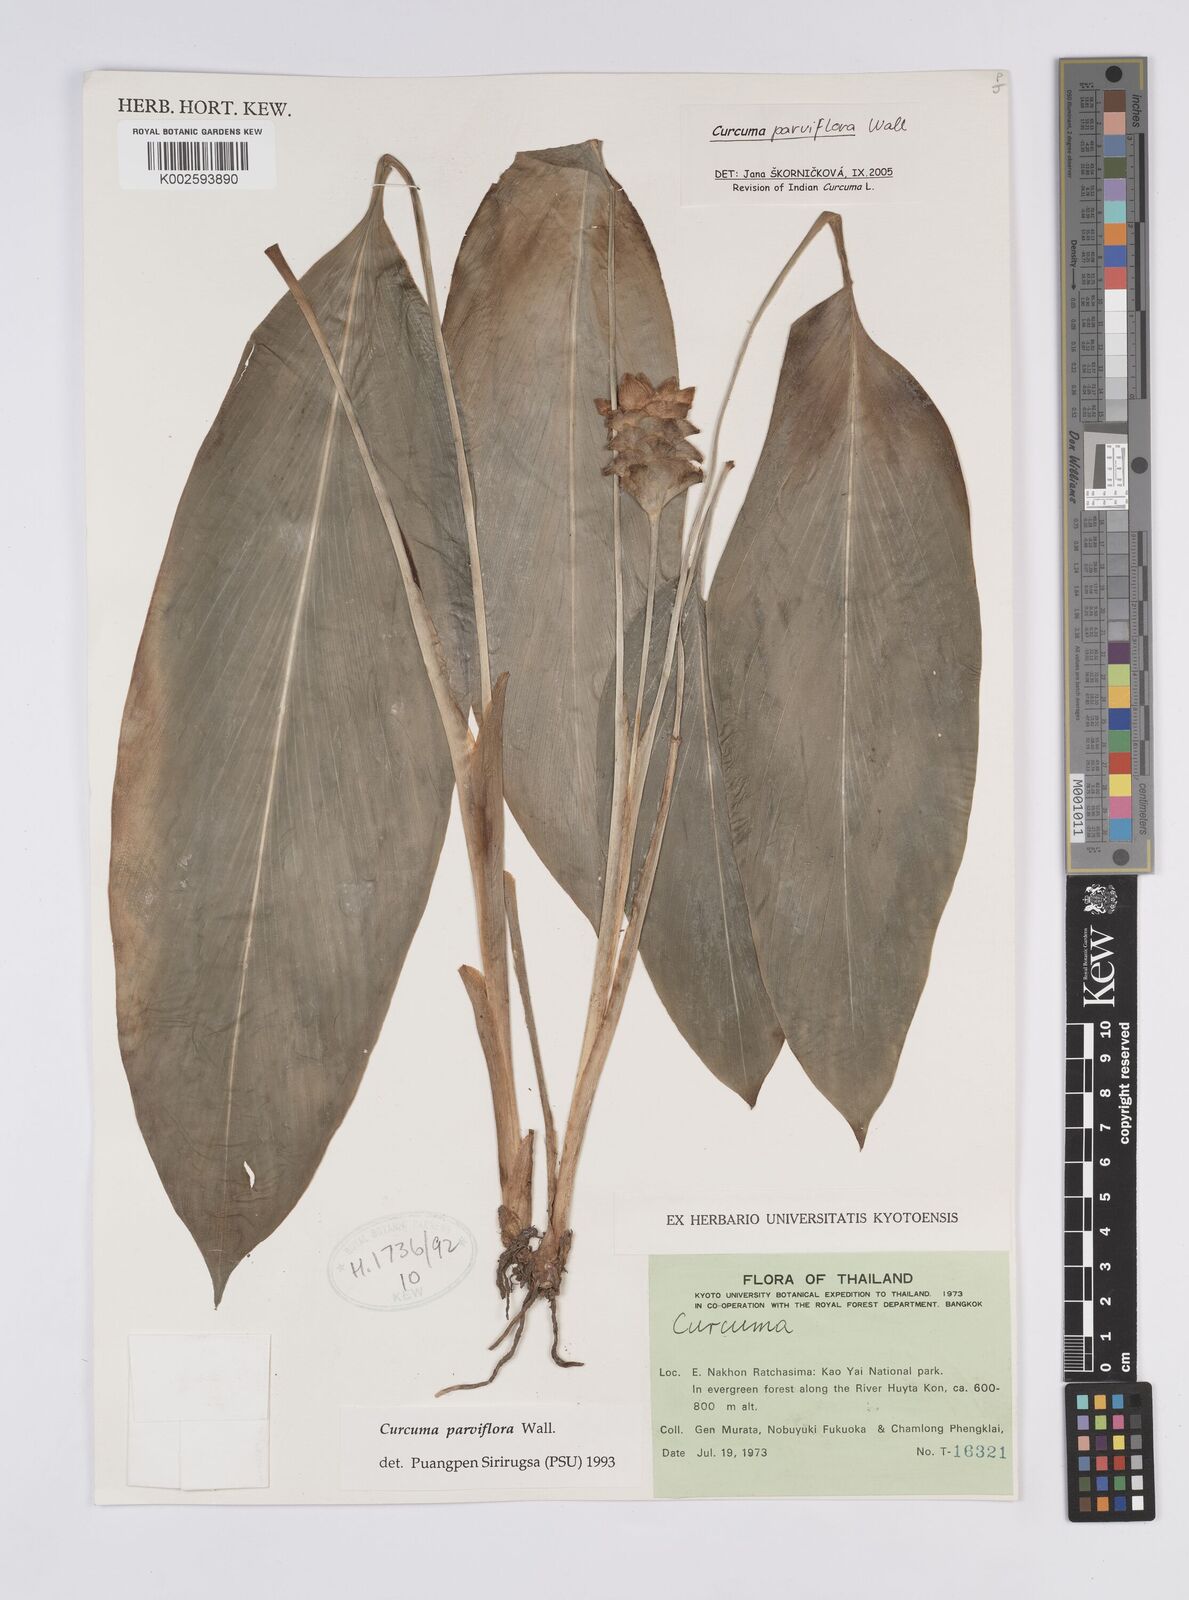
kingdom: Plantae
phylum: Tracheophyta
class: Liliopsida
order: Zingiberales
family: Zingiberaceae
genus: Curcuma
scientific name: Curcuma parviflora
